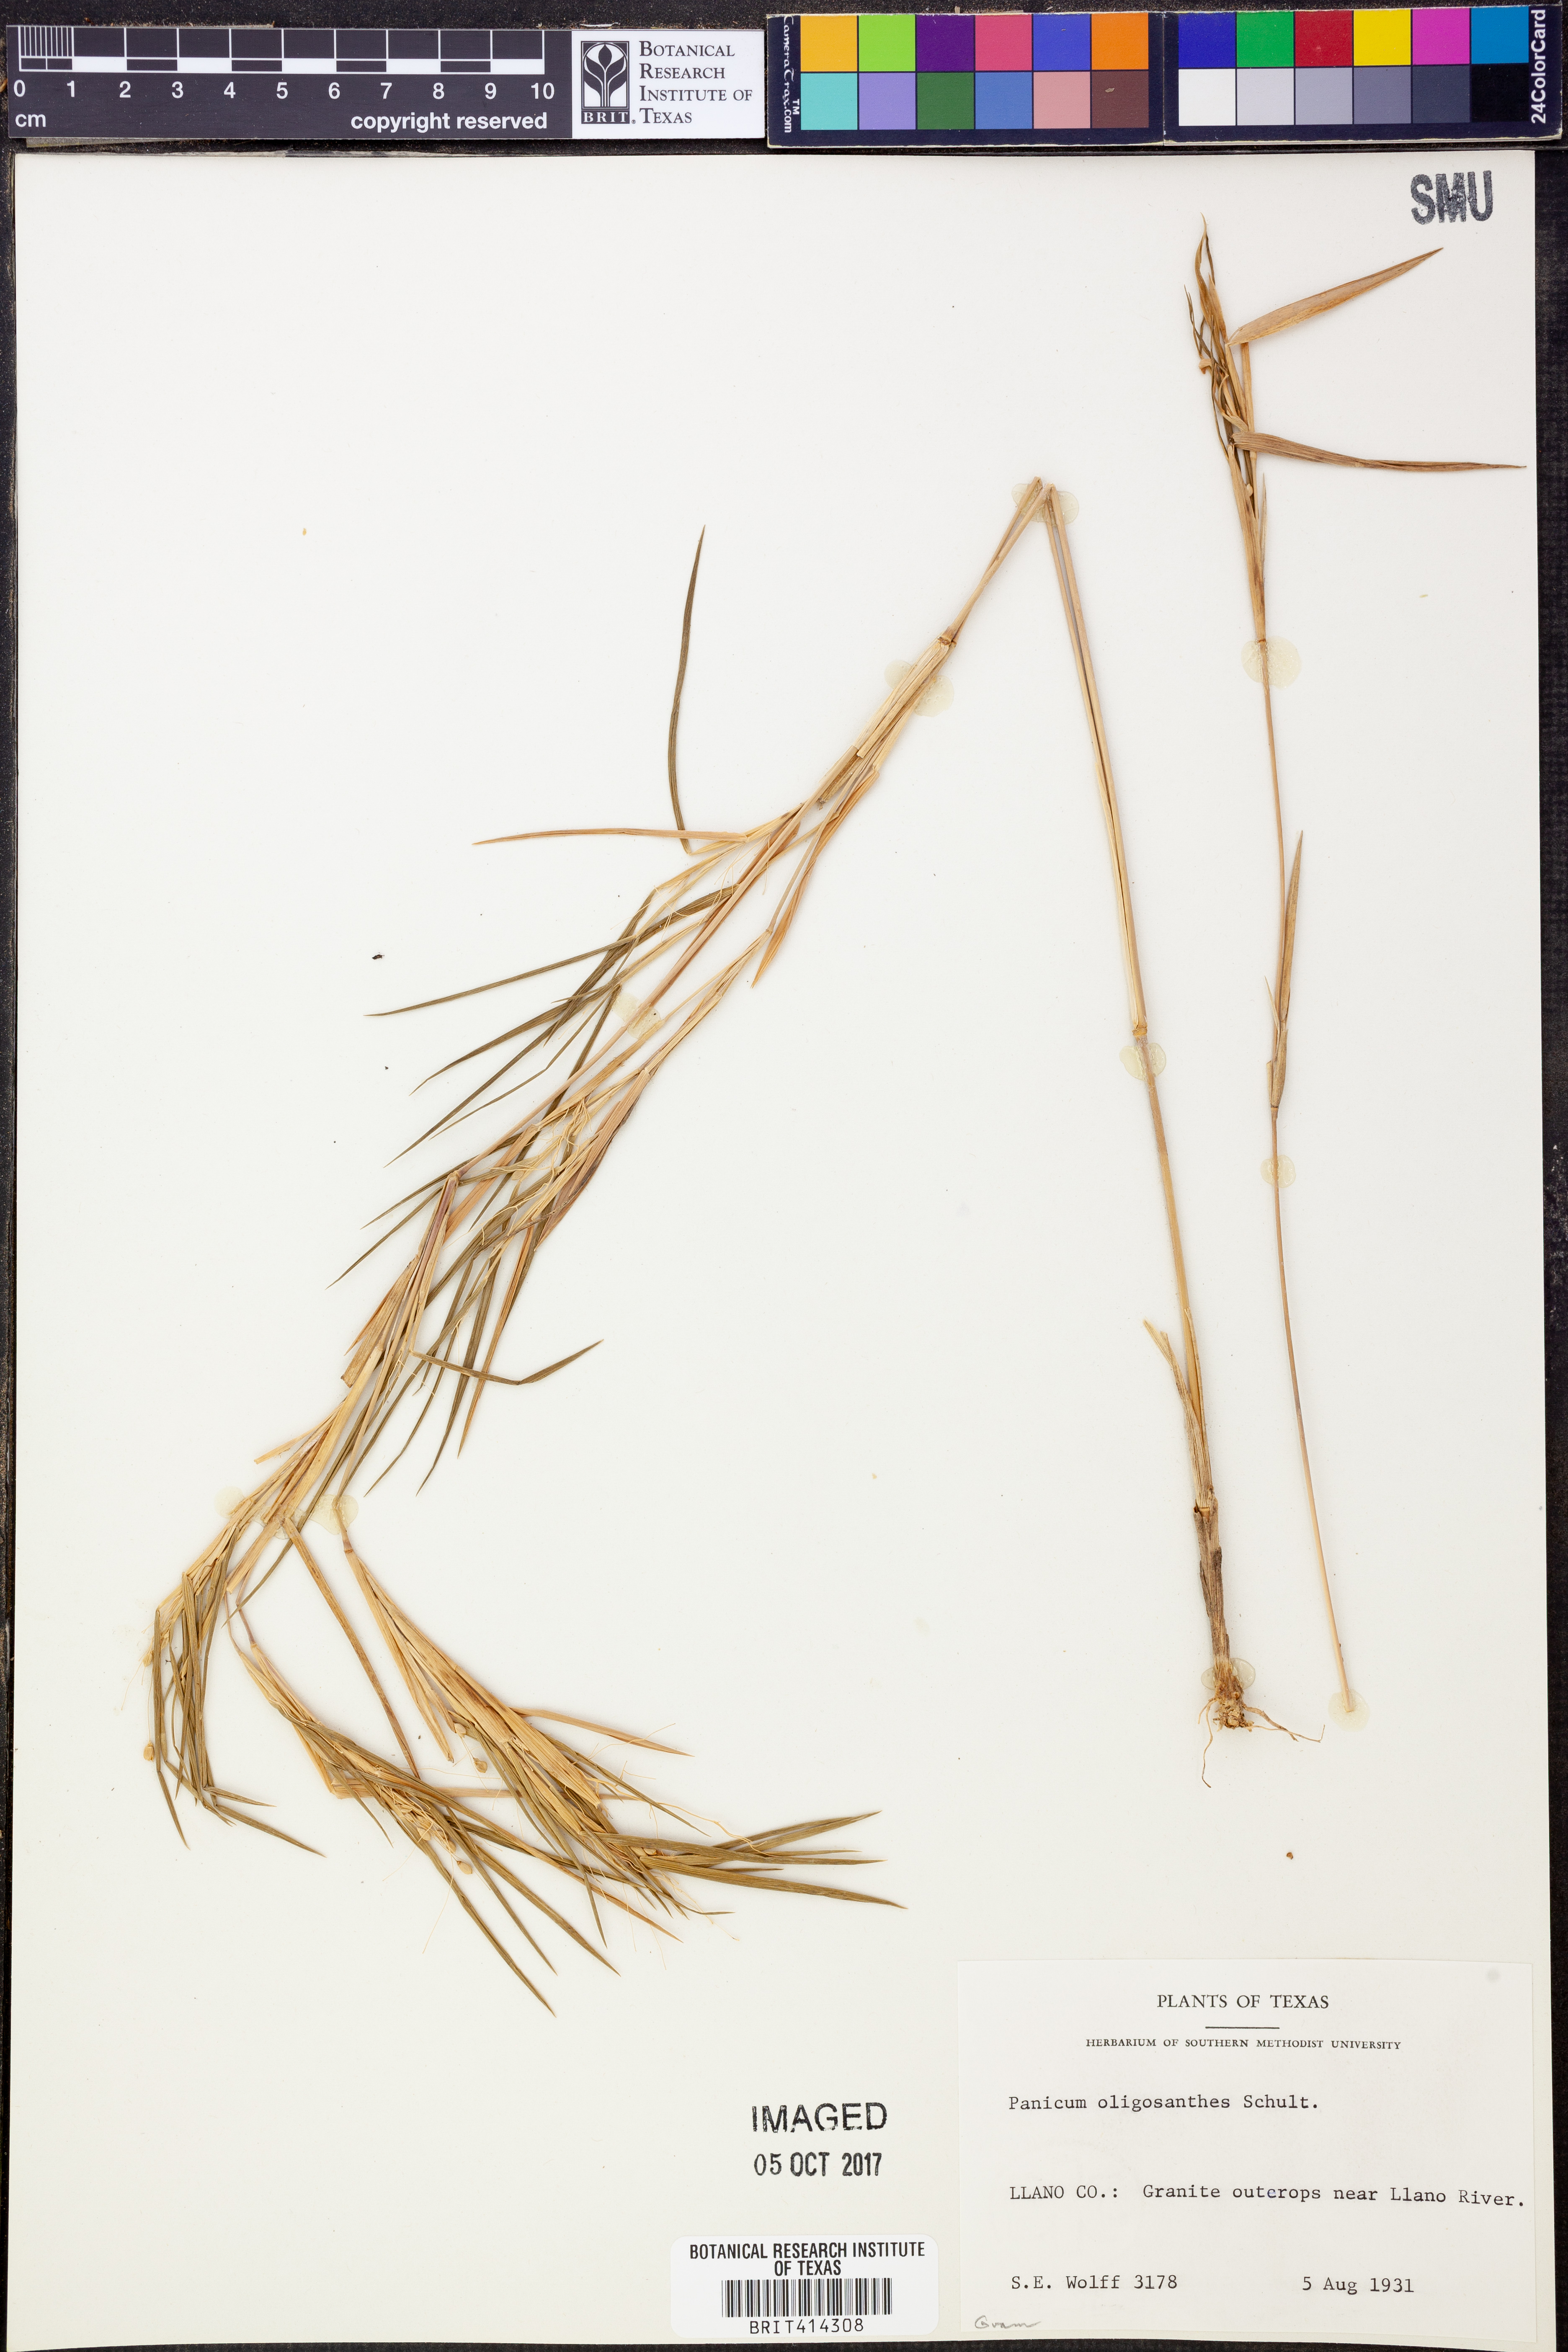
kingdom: Plantae
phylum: Tracheophyta
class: Liliopsida
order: Poales
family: Poaceae
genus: Dichanthelium
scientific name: Dichanthelium oligosanthes
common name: Few-anther obscuregrass
